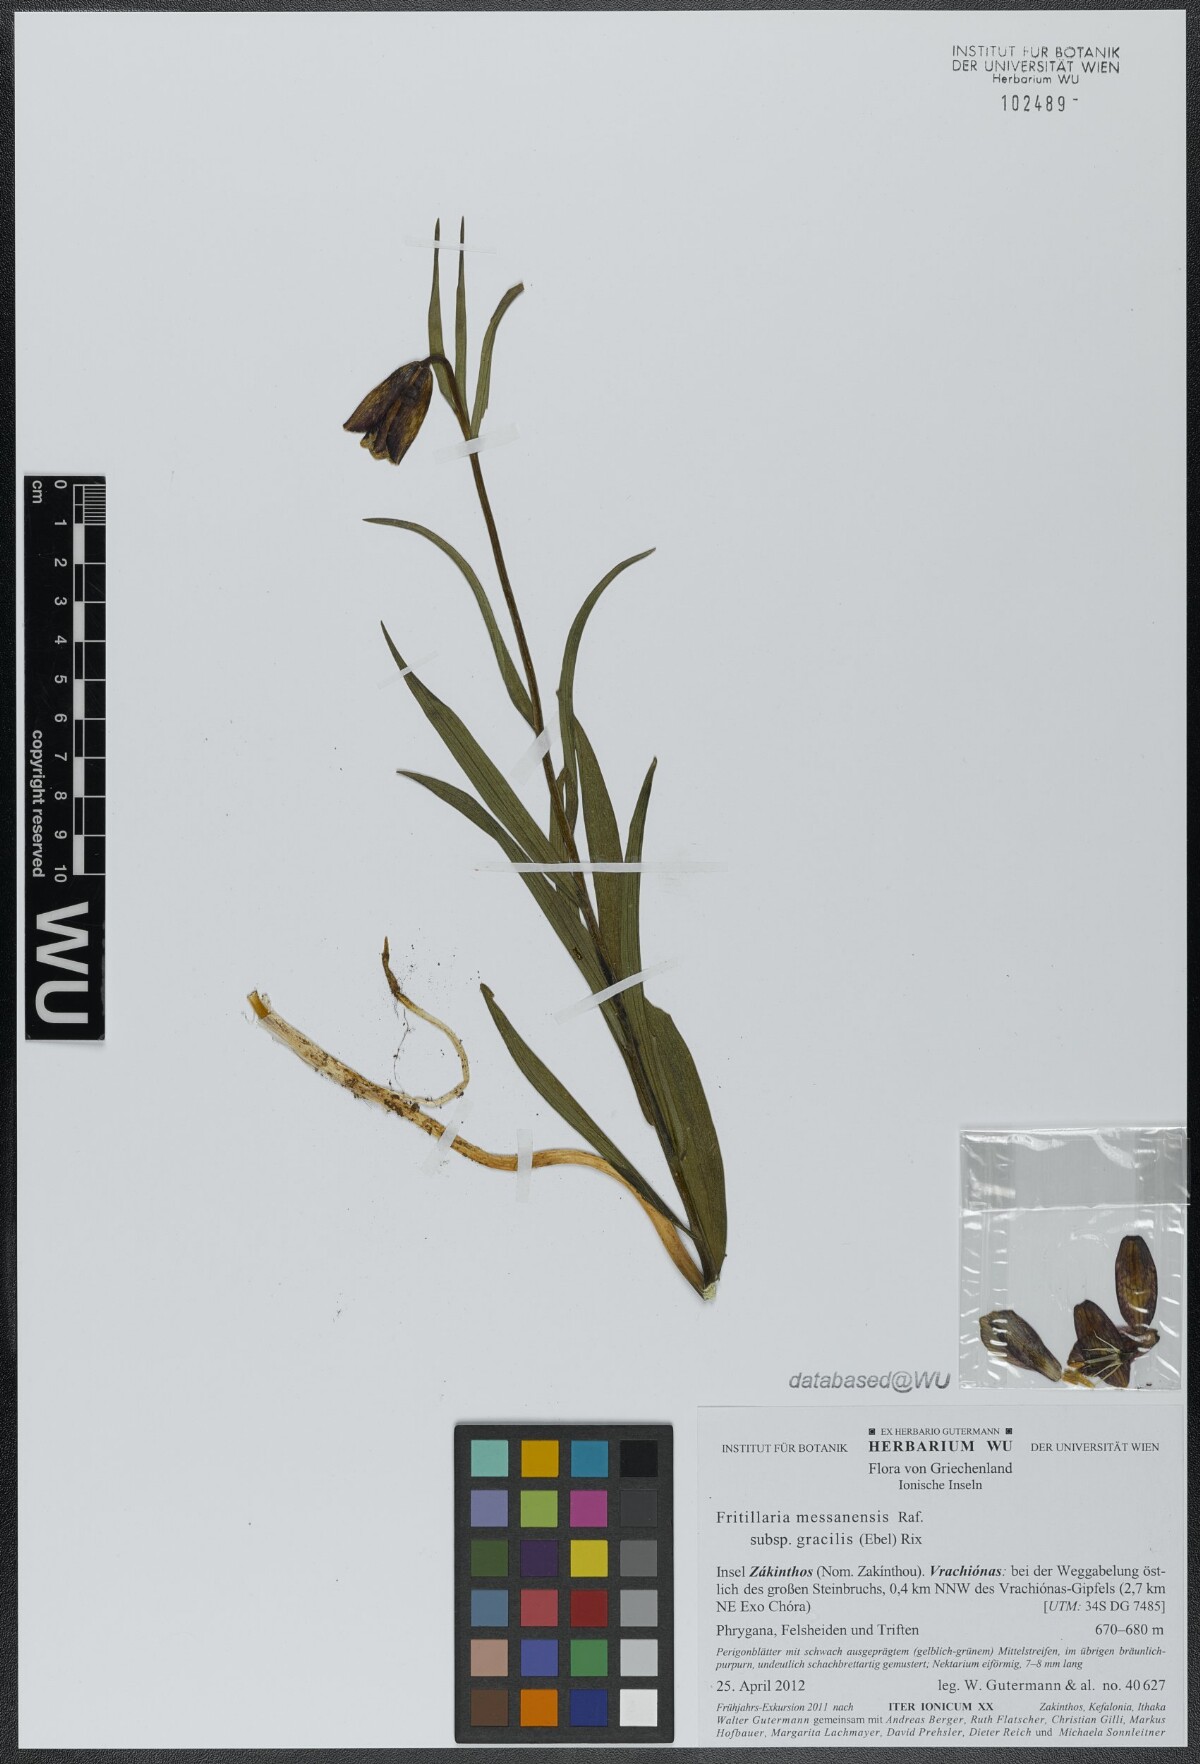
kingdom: Plantae
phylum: Tracheophyta
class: Liliopsida
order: Liliales
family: Liliaceae
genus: Fritillaria
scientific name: Fritillaria messanensis
